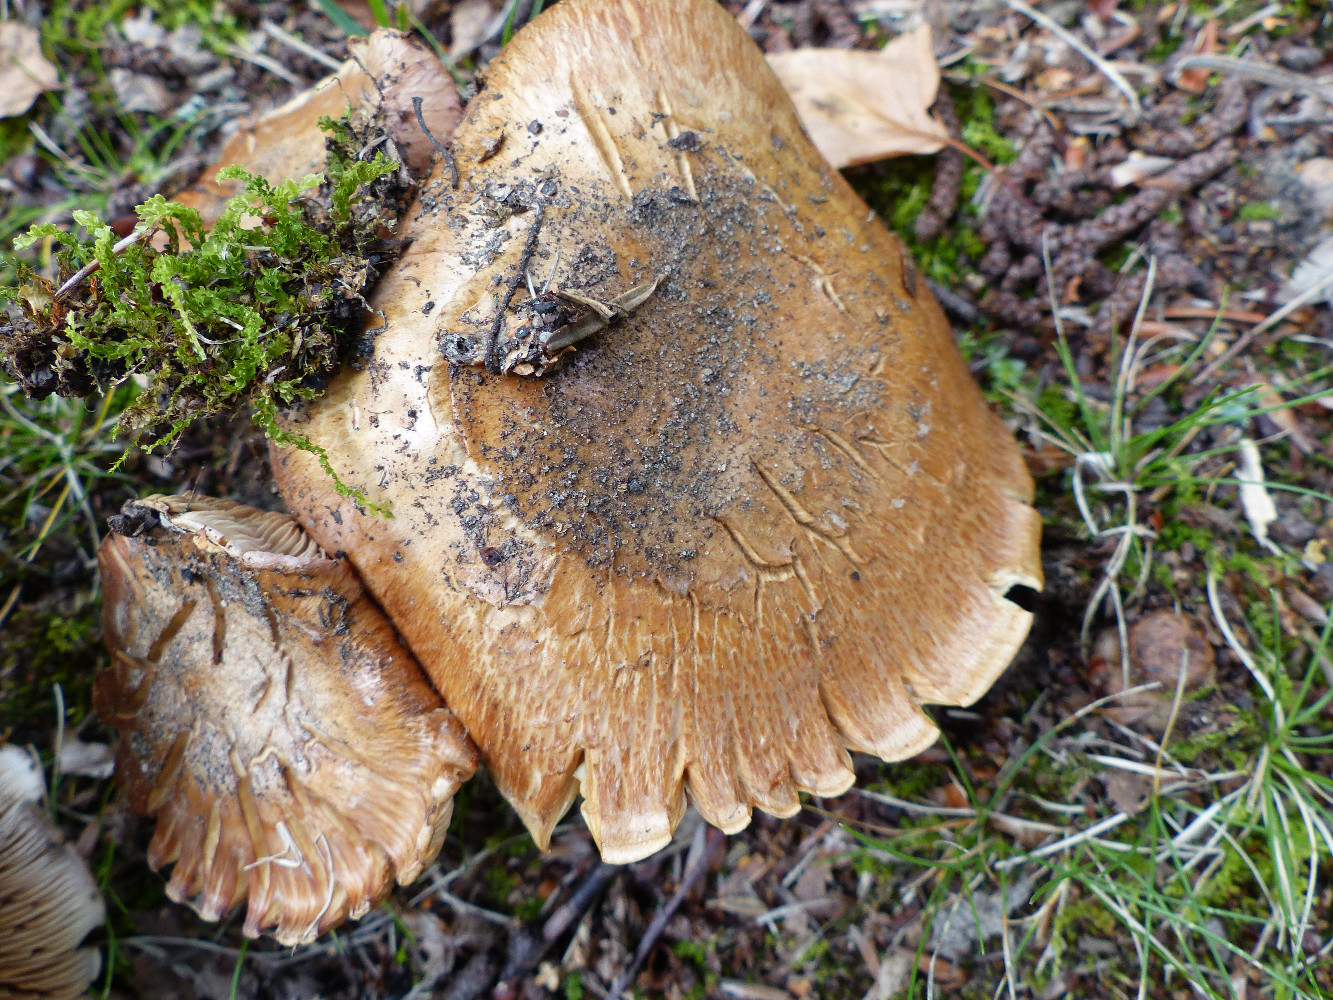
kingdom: Fungi
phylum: Basidiomycota
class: Agaricomycetes
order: Agaricales
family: Cortinariaceae
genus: Phlegmacium
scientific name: Phlegmacium balteatocumatile
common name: violettrådet slørhat
